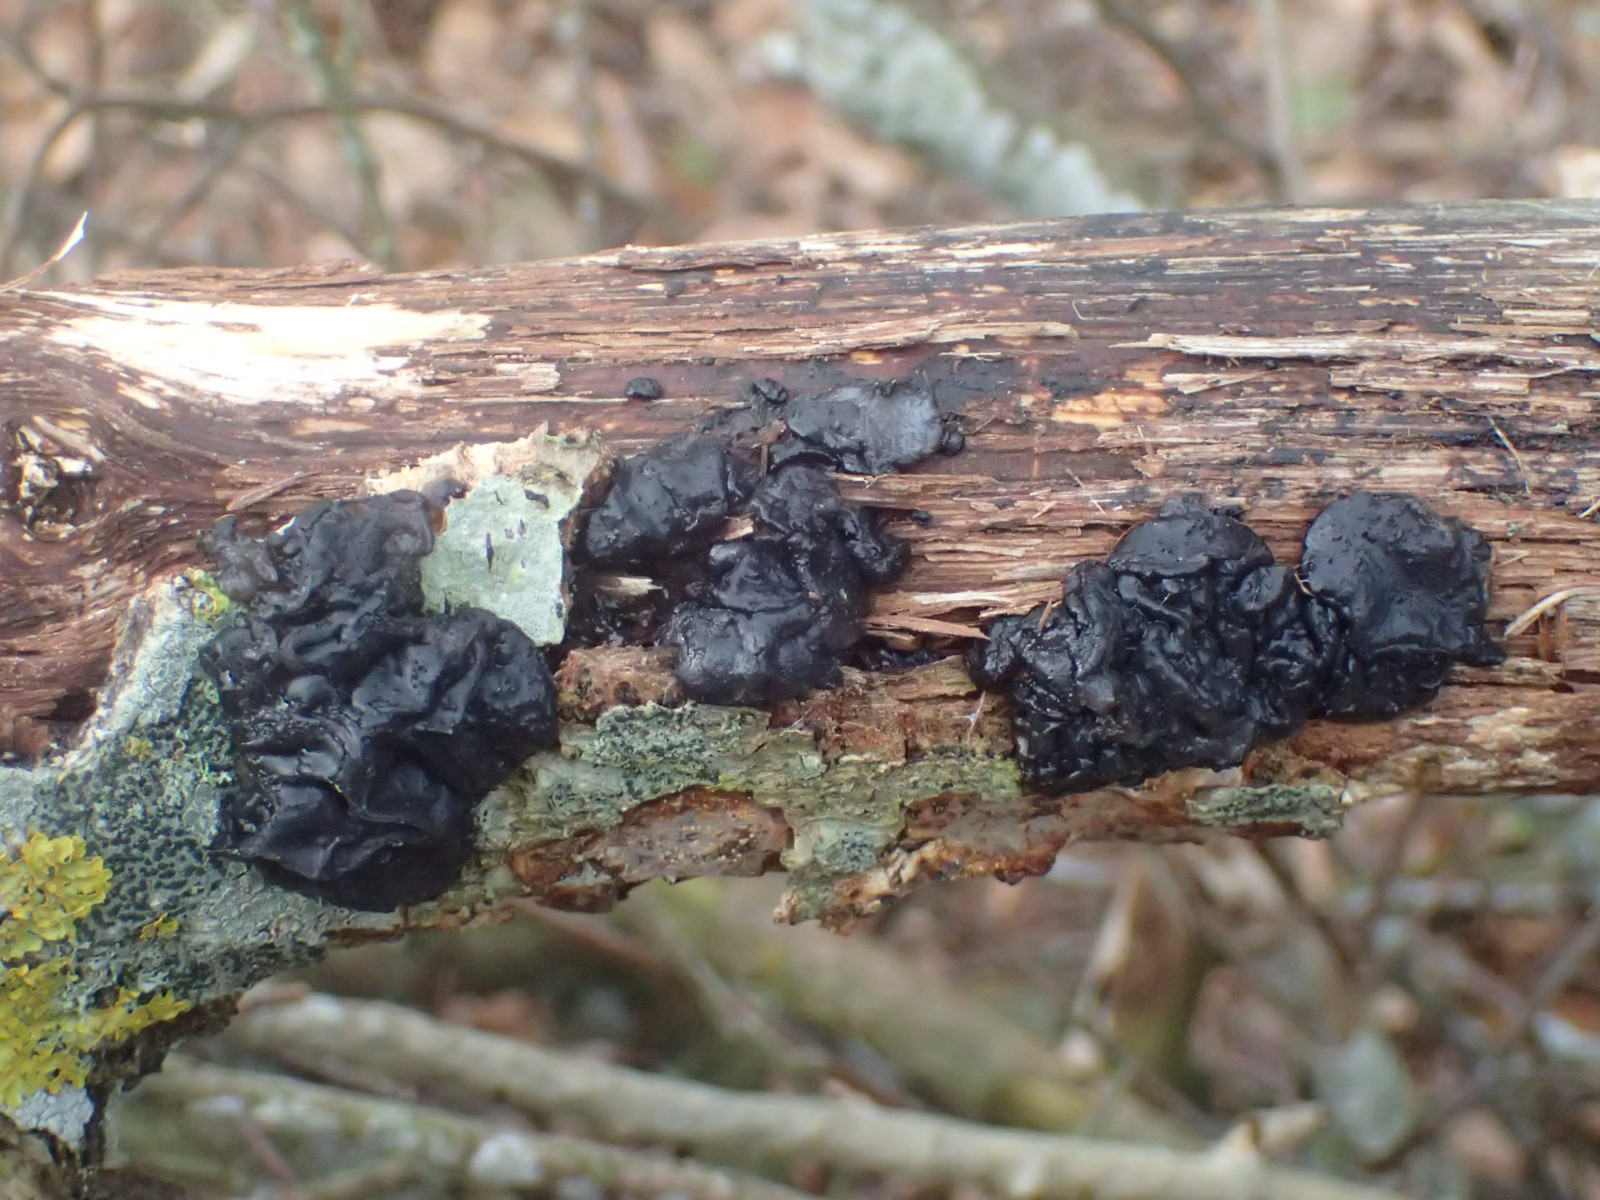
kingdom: Fungi
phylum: Basidiomycota
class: Agaricomycetes
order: Auriculariales
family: Auriculariaceae
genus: Exidia
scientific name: Exidia glandulosa
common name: ege-bævretop
